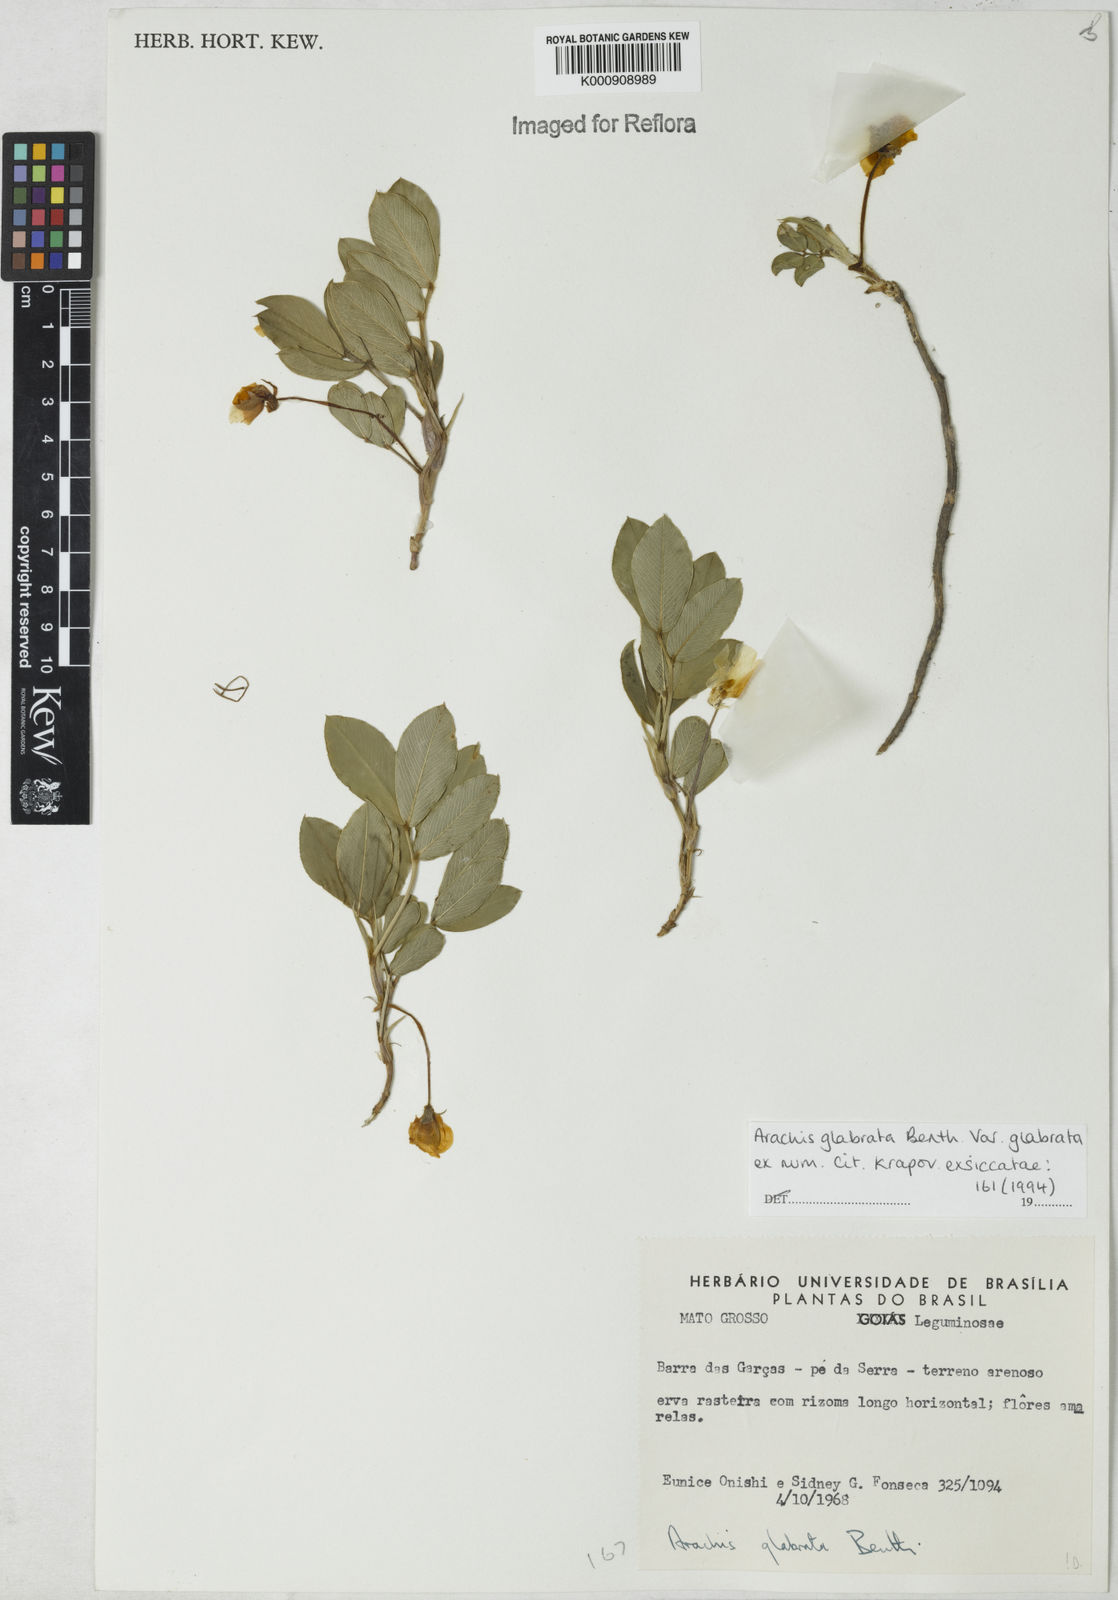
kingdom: Plantae
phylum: Tracheophyta
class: Magnoliopsida
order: Fabales
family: Fabaceae
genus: Arachis
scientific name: Arachis glabrata
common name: Rhizoma peanut
